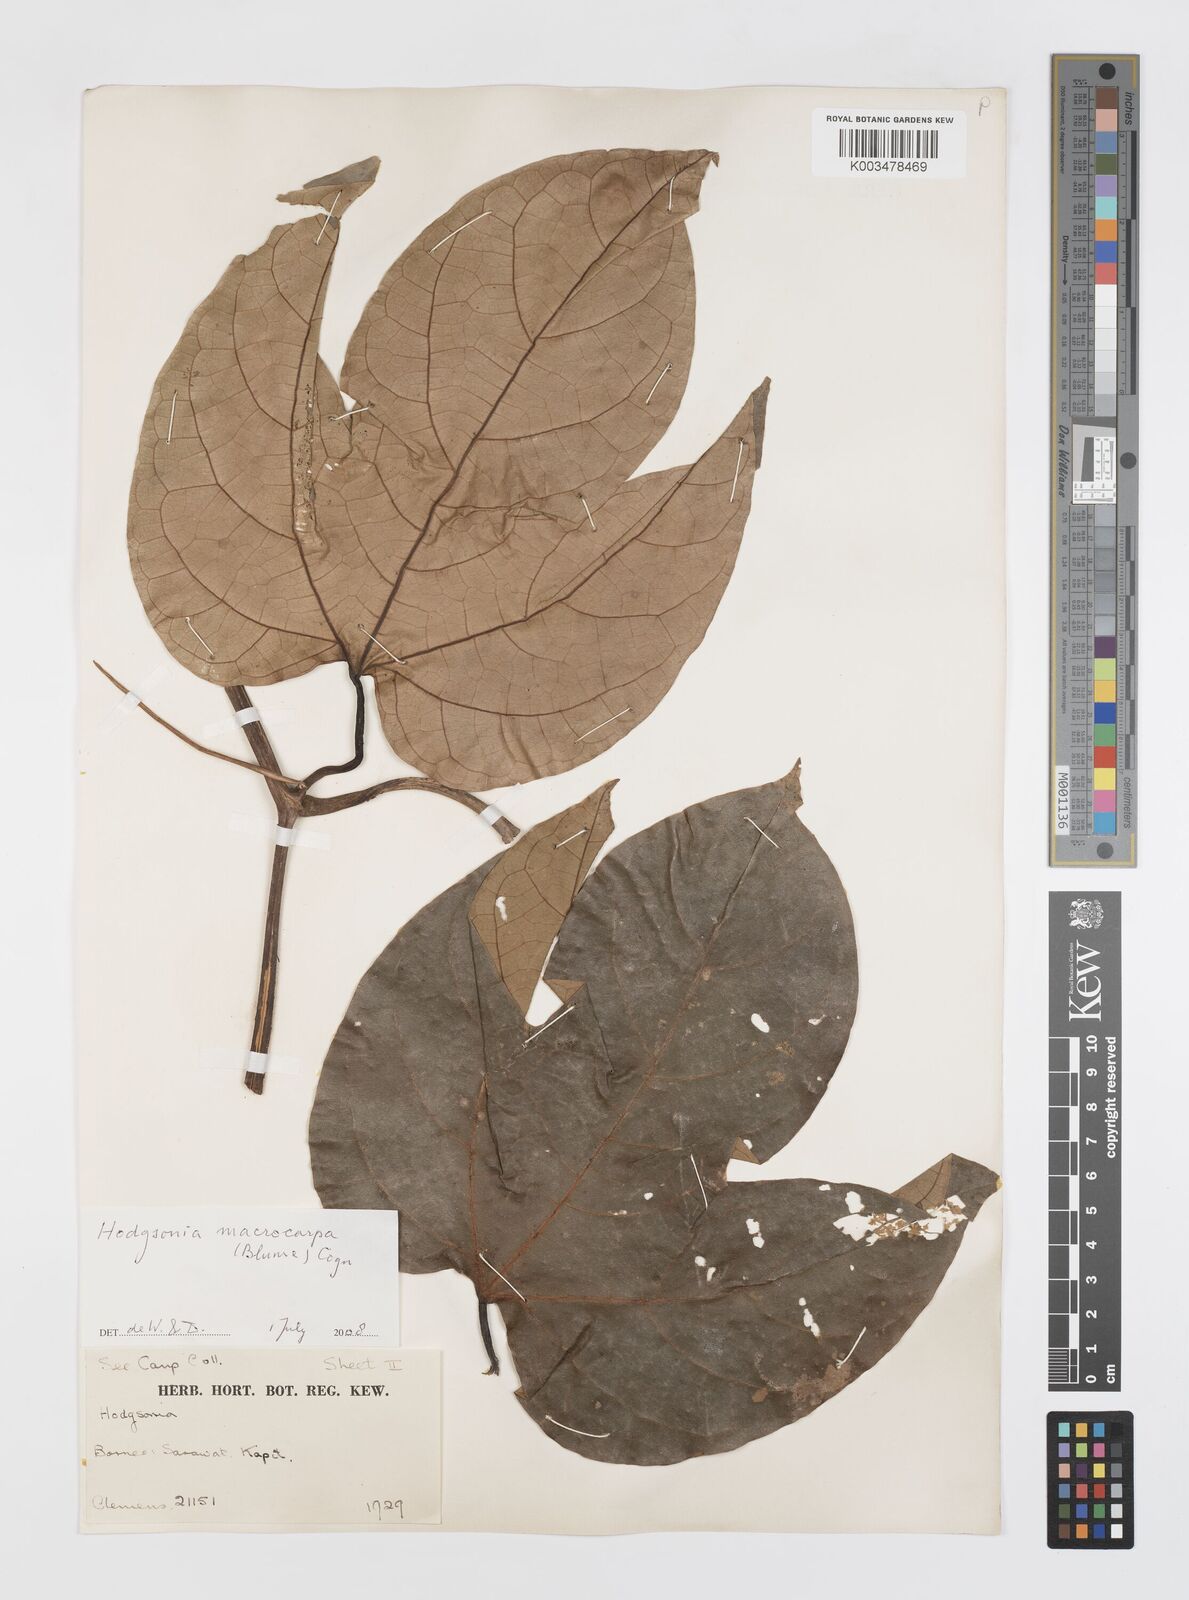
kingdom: Plantae
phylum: Tracheophyta
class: Magnoliopsida
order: Cucurbitales
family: Cucurbitaceae
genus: Hodgsonia
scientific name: Hodgsonia macrocarpa
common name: Chinese lardfruit
